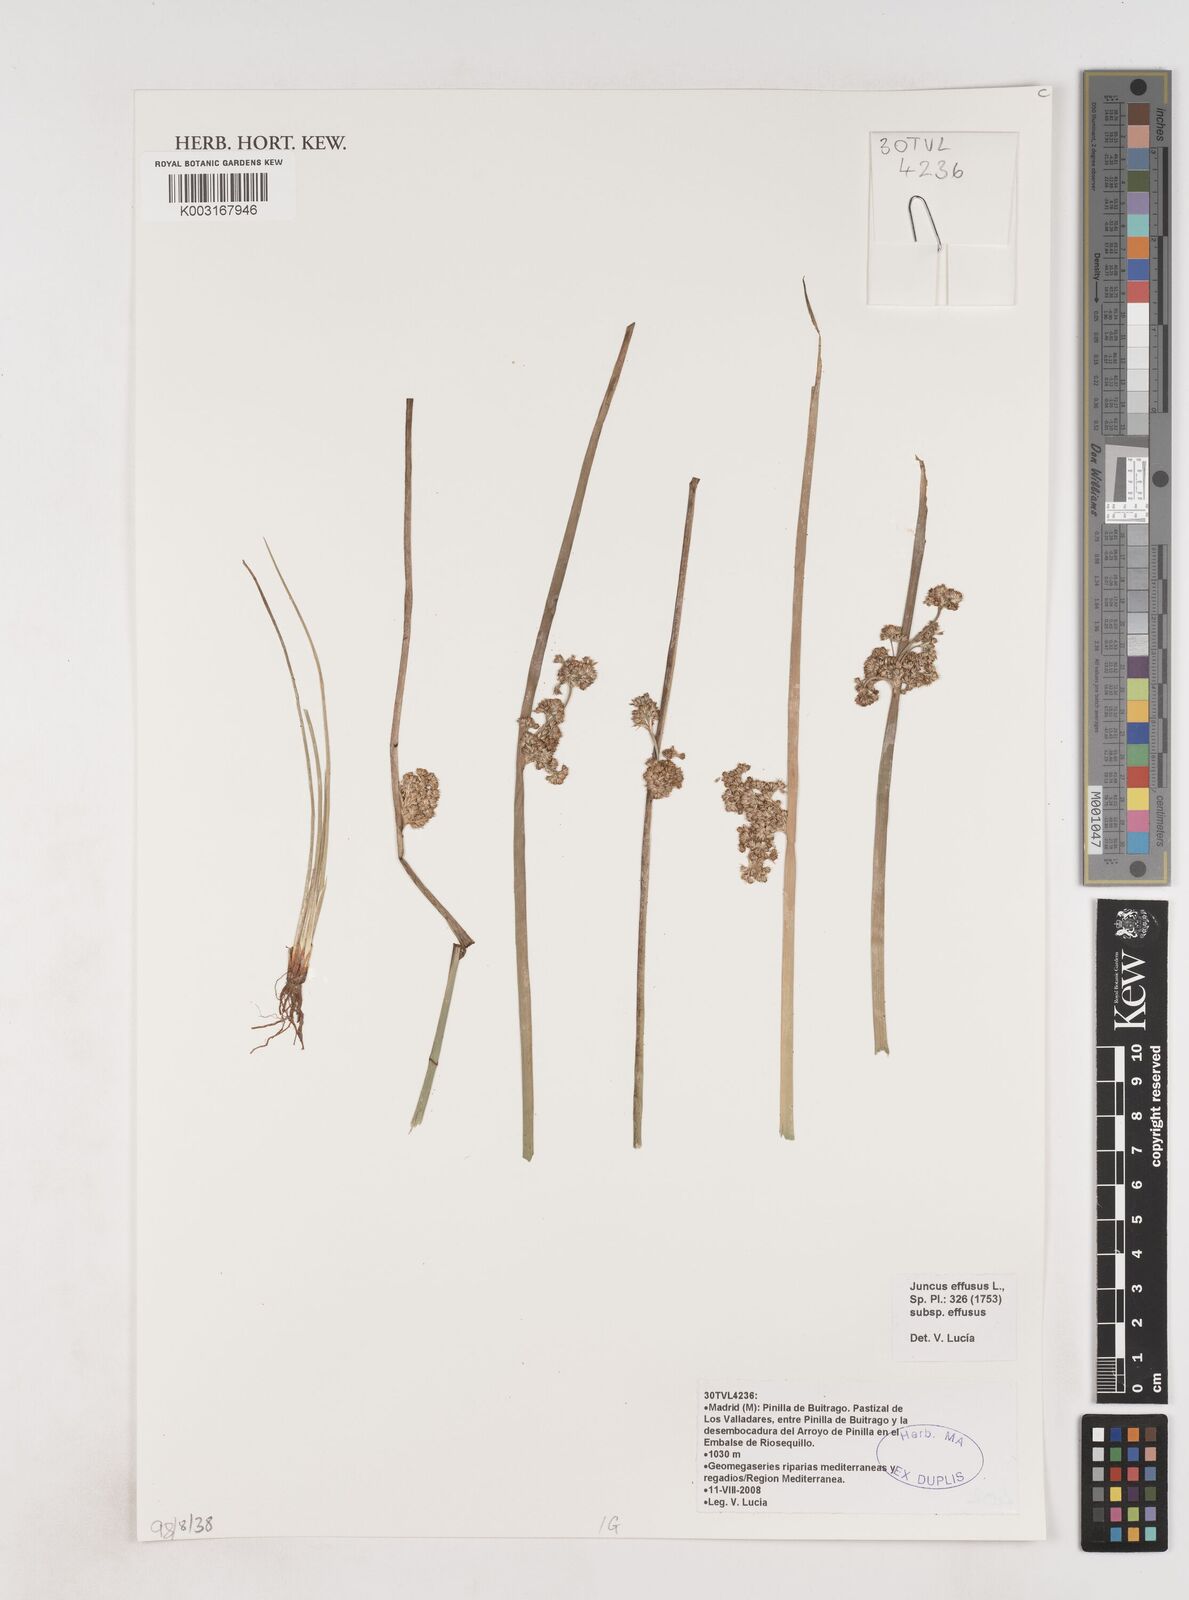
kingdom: Plantae
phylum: Tracheophyta
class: Liliopsida
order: Poales
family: Juncaceae
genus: Juncus
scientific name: Juncus effusus
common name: Soft rush
